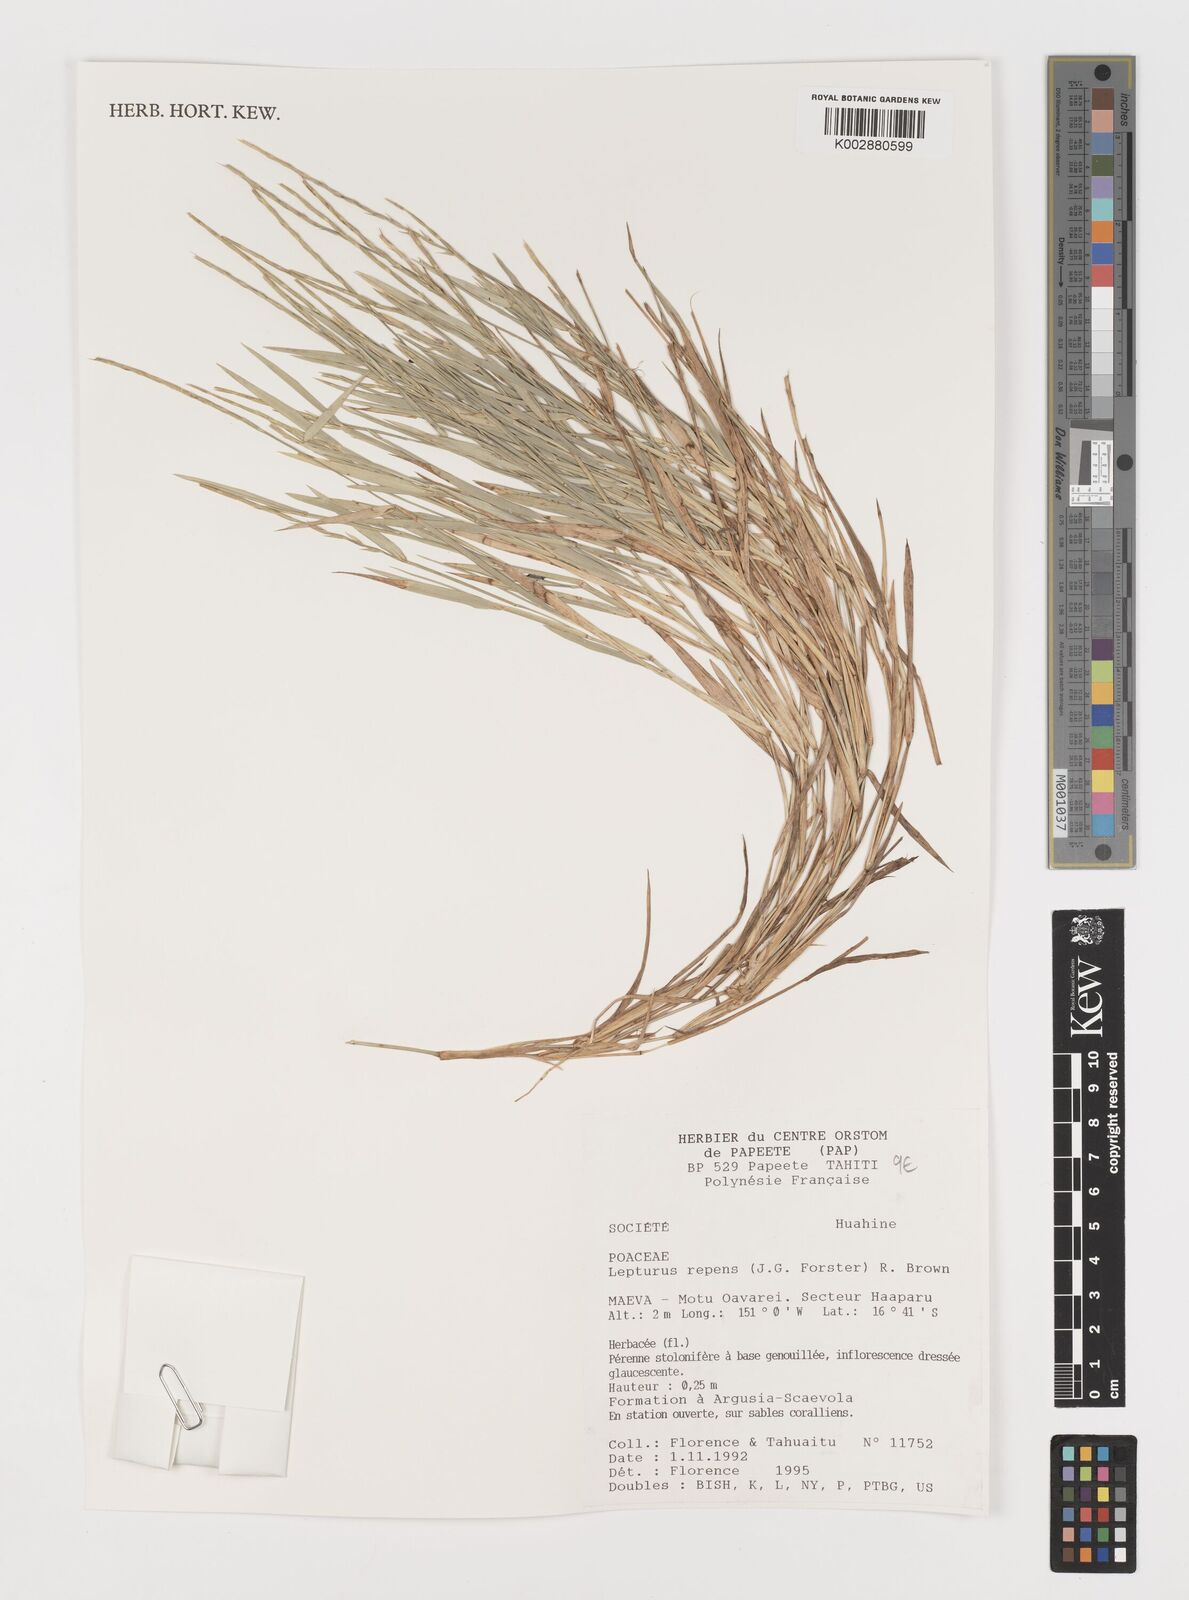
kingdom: Plantae
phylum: Tracheophyta
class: Liliopsida
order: Poales
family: Poaceae
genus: Lepturus
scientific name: Lepturus repens
